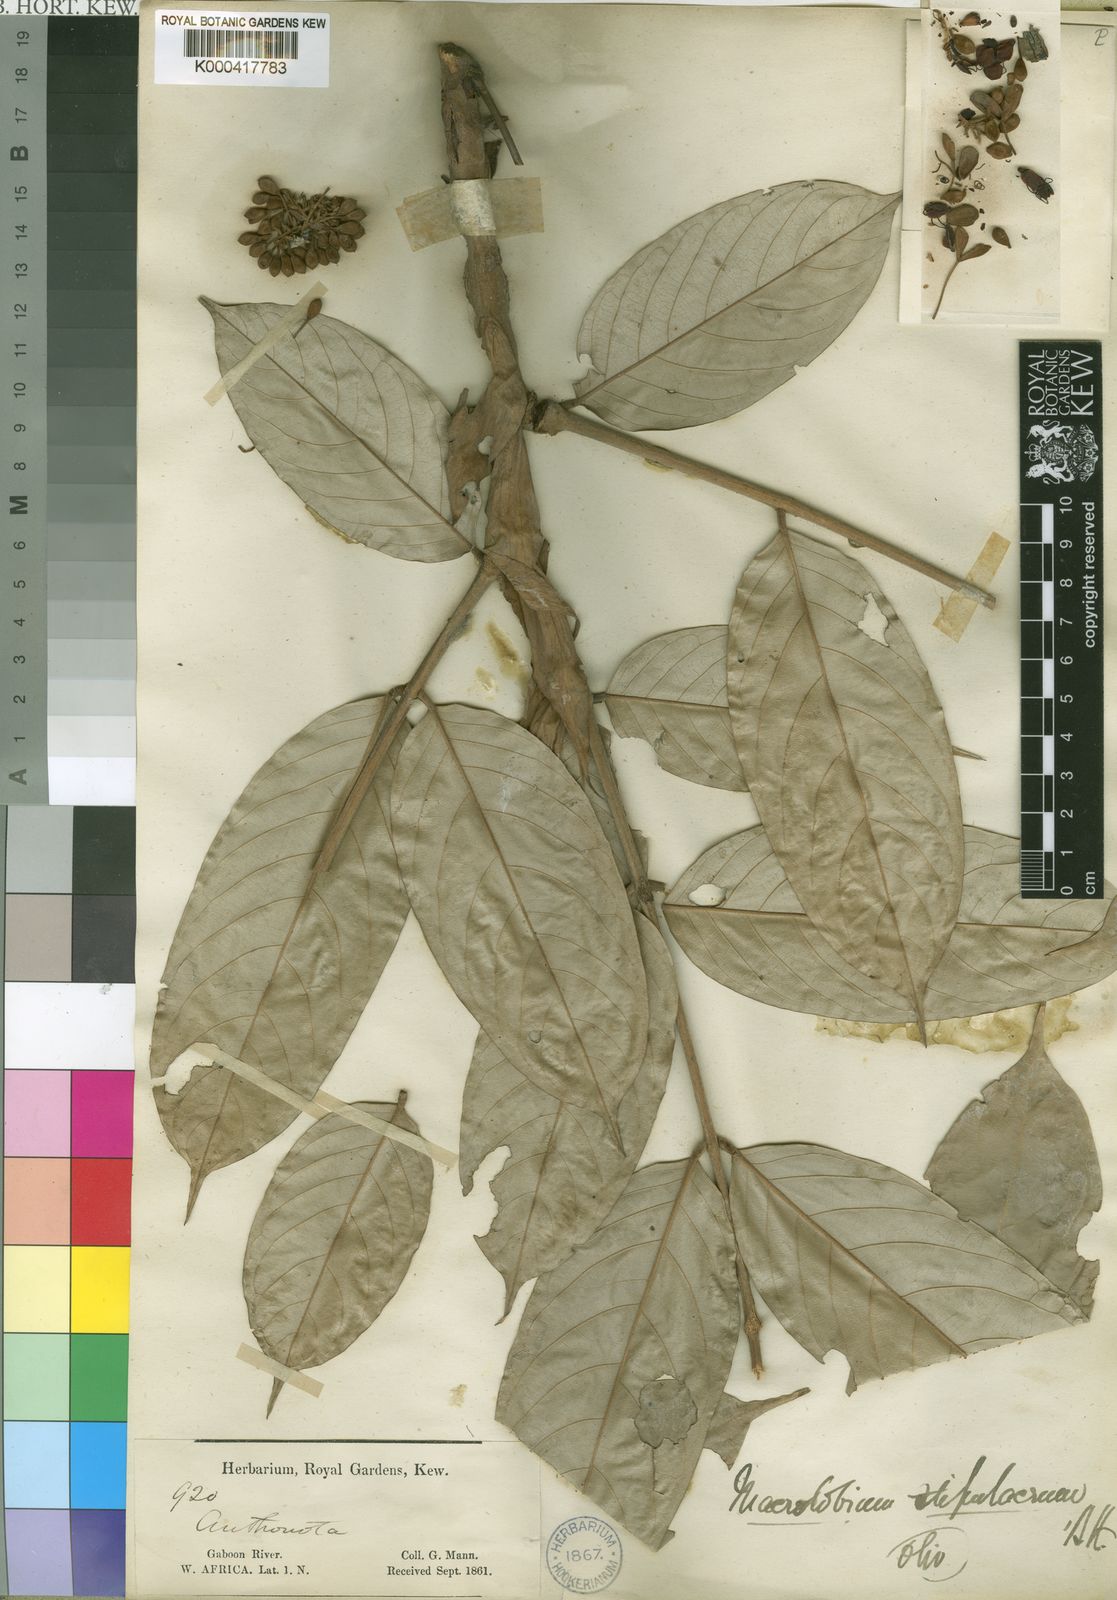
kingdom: Plantae
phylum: Tracheophyta
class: Magnoliopsida
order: Fabales
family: Fabaceae
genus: Anthonotha
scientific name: Anthonotha
